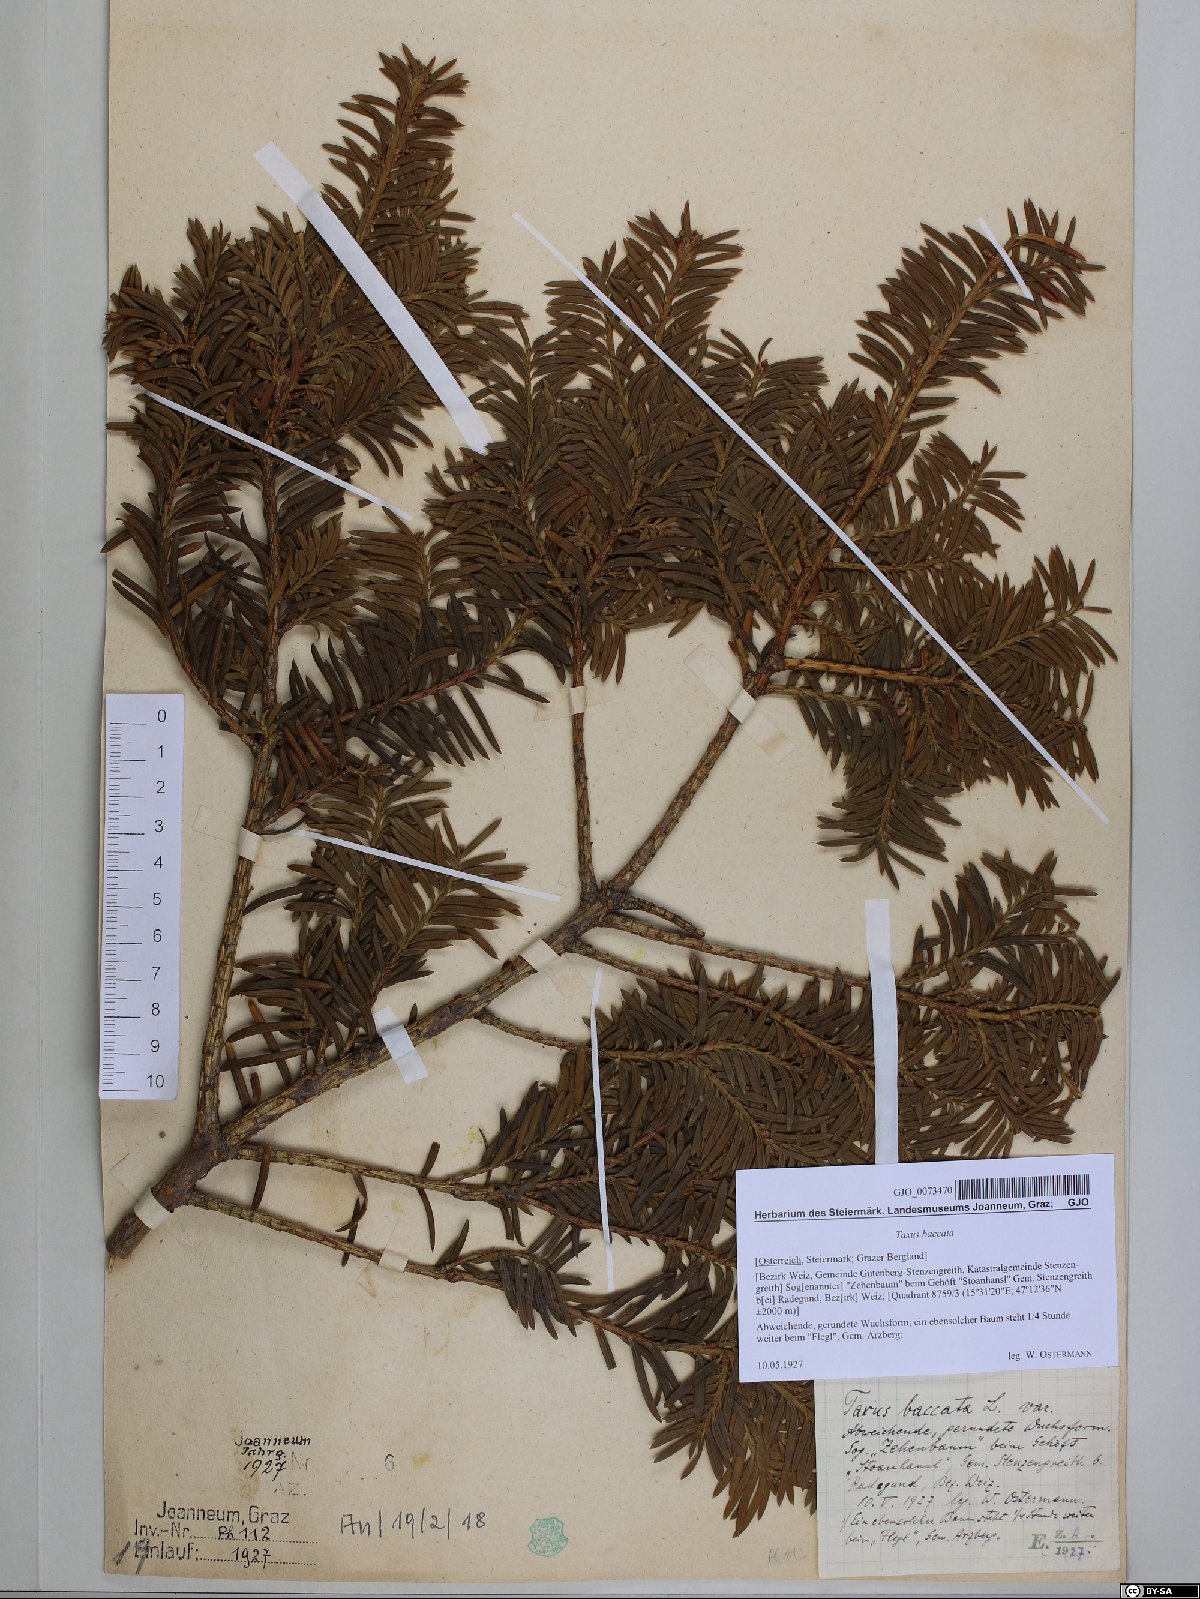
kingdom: Plantae
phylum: Tracheophyta
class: Pinopsida
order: Pinales
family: Taxaceae
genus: Taxus
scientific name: Taxus baccata
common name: Yew
